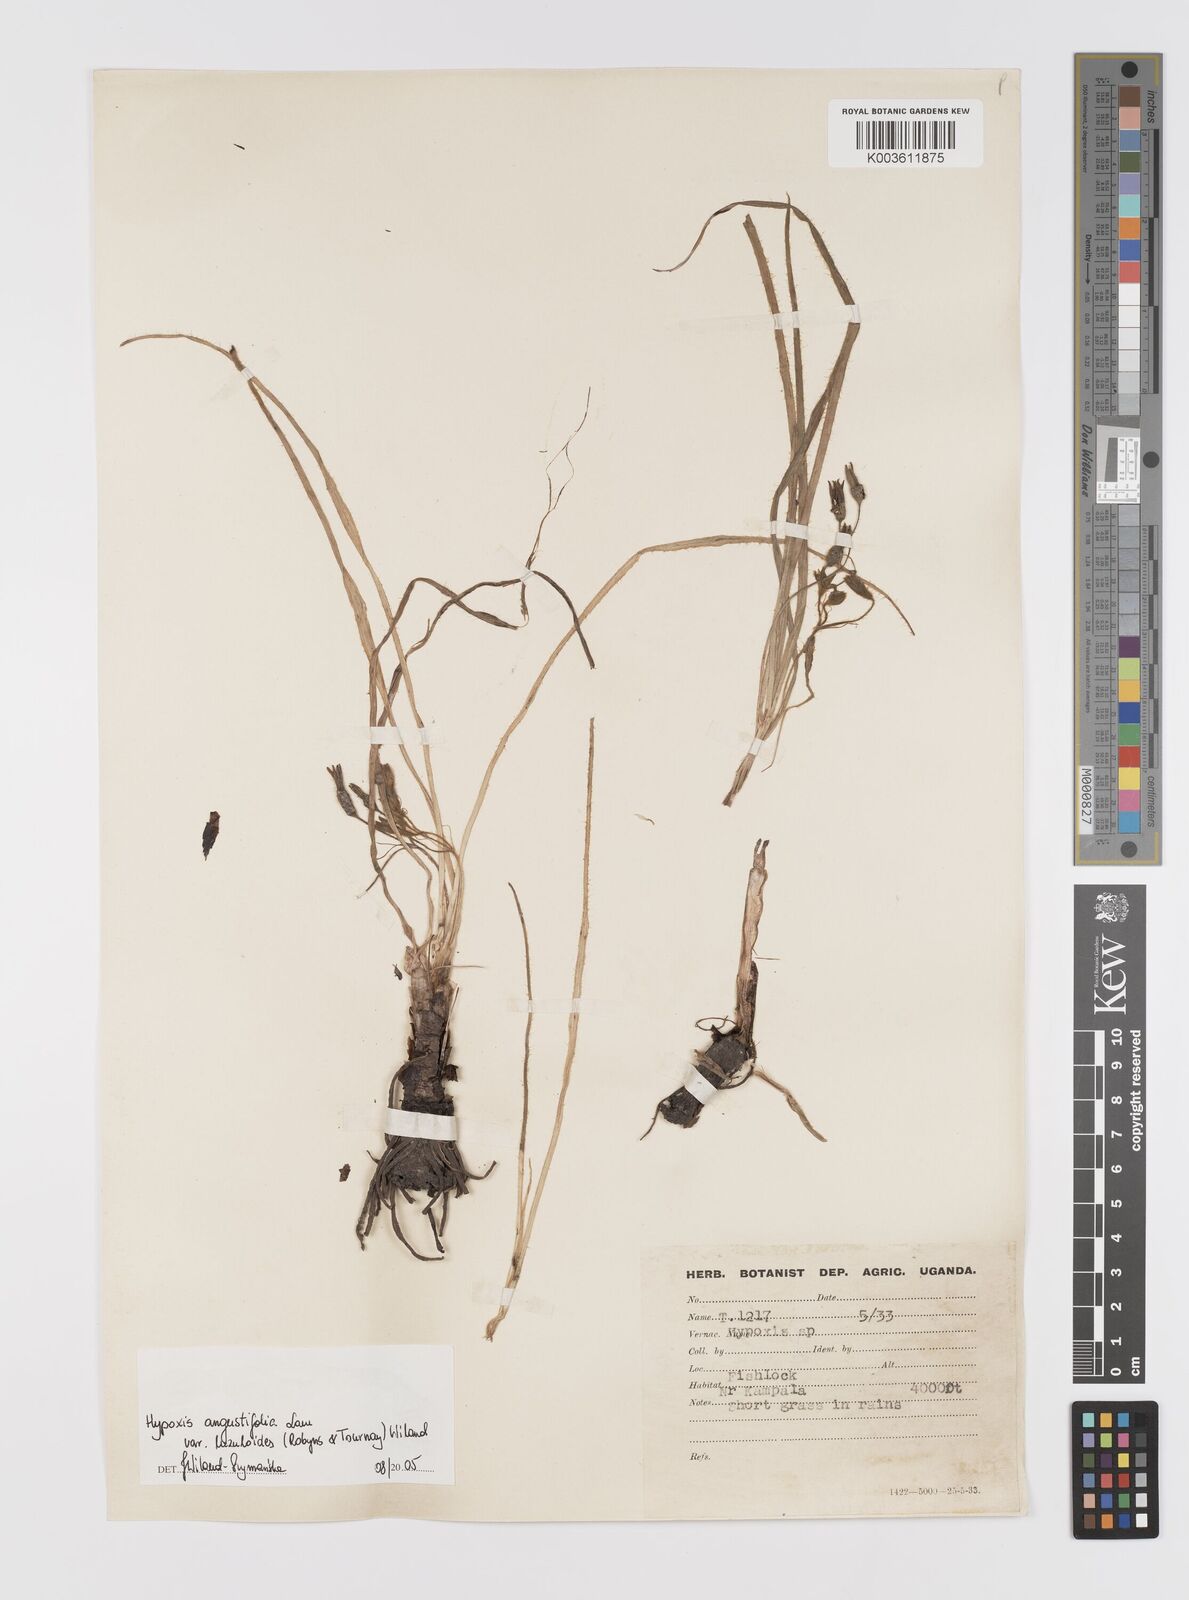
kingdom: Plantae
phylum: Tracheophyta
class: Liliopsida
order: Asparagales
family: Hypoxidaceae
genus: Hypoxis
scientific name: Hypoxis angustifolia
